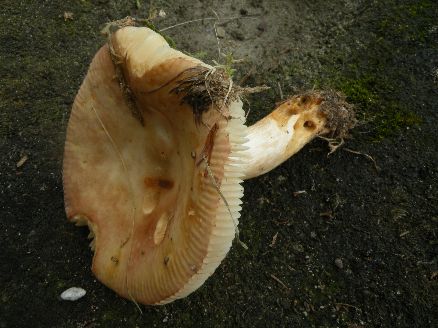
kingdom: Fungi
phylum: Basidiomycota
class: Agaricomycetes
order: Russulales
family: Russulaceae
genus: Russula
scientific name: Russula recondita
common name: mild kam-skørhat
